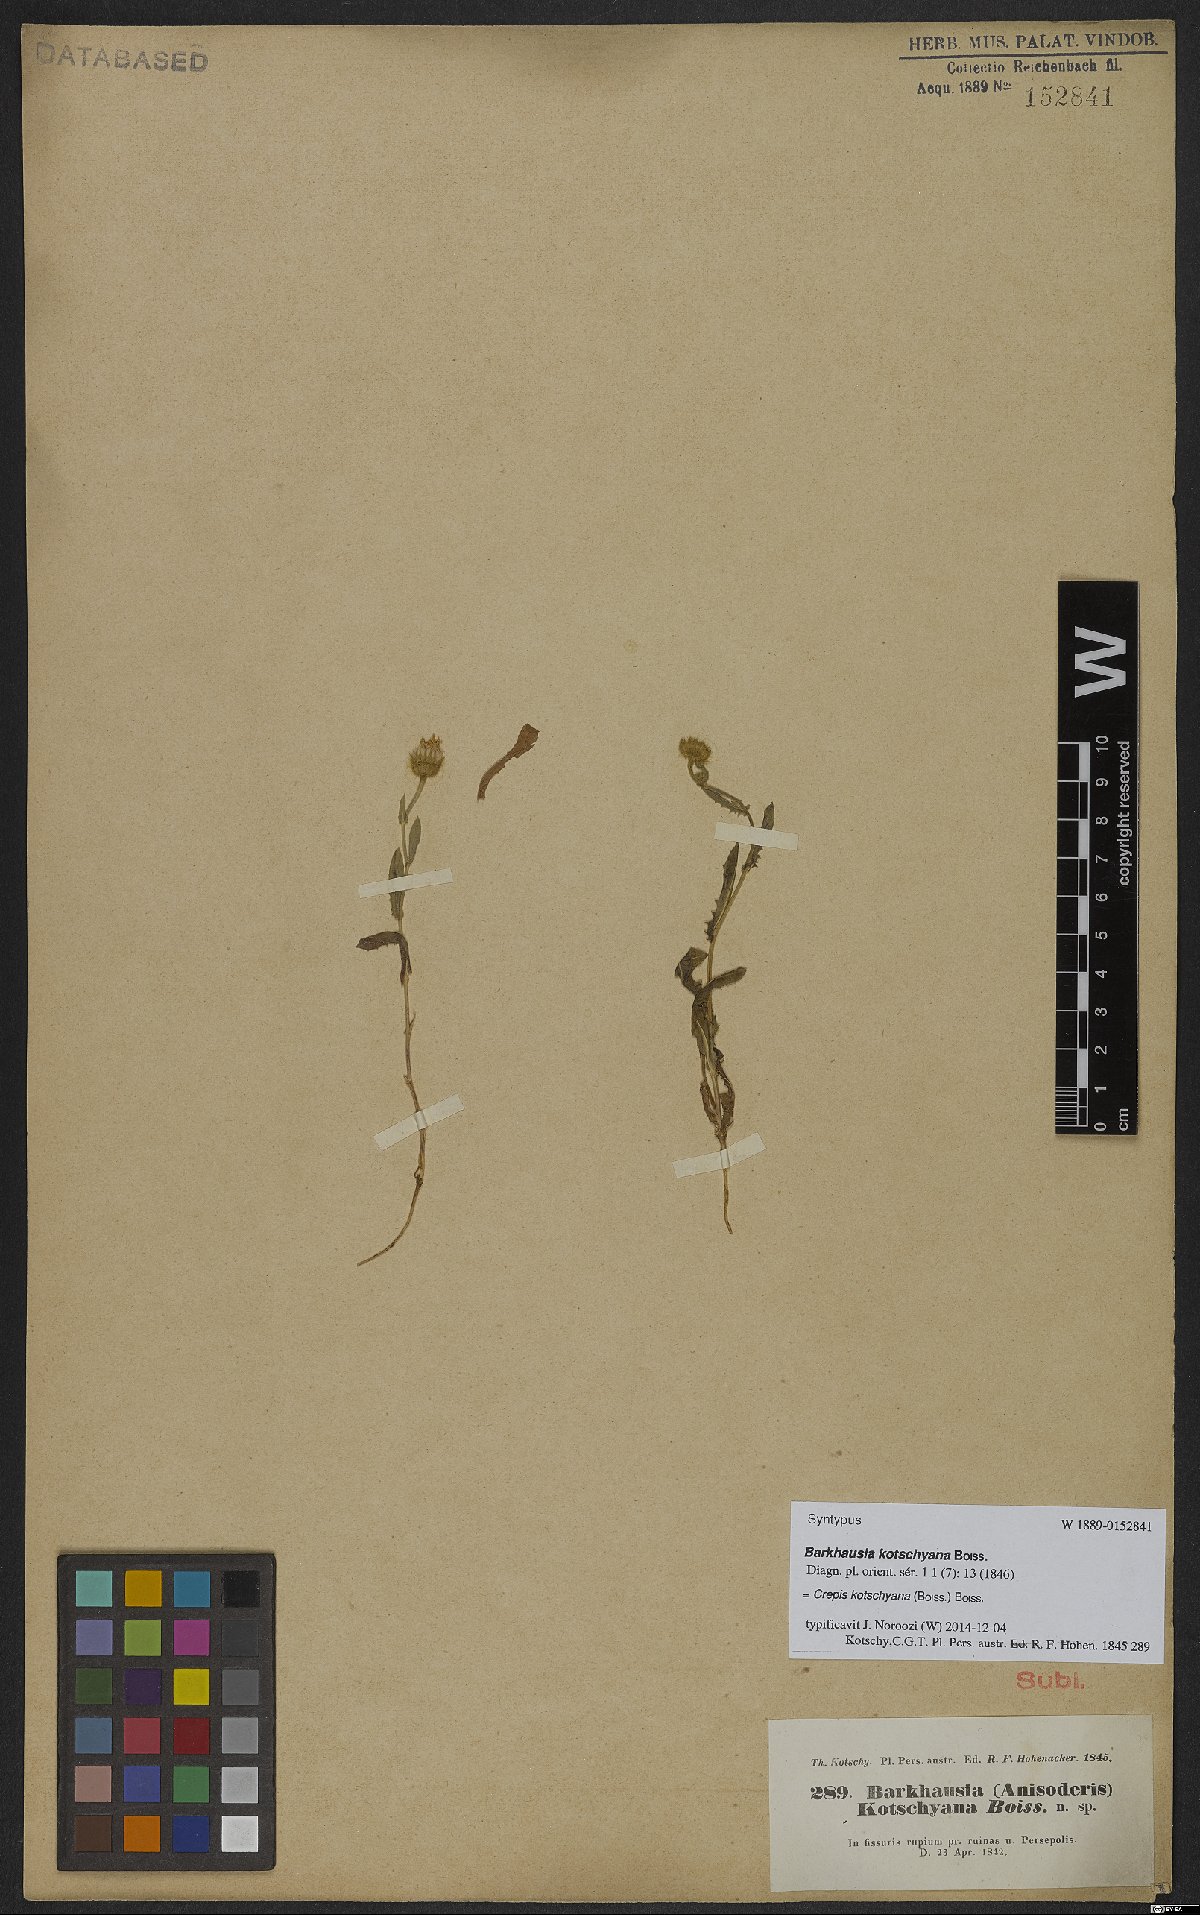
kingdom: Plantae
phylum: Tracheophyta
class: Magnoliopsida
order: Asterales
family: Asteraceae
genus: Crepis
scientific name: Crepis kotschyana
